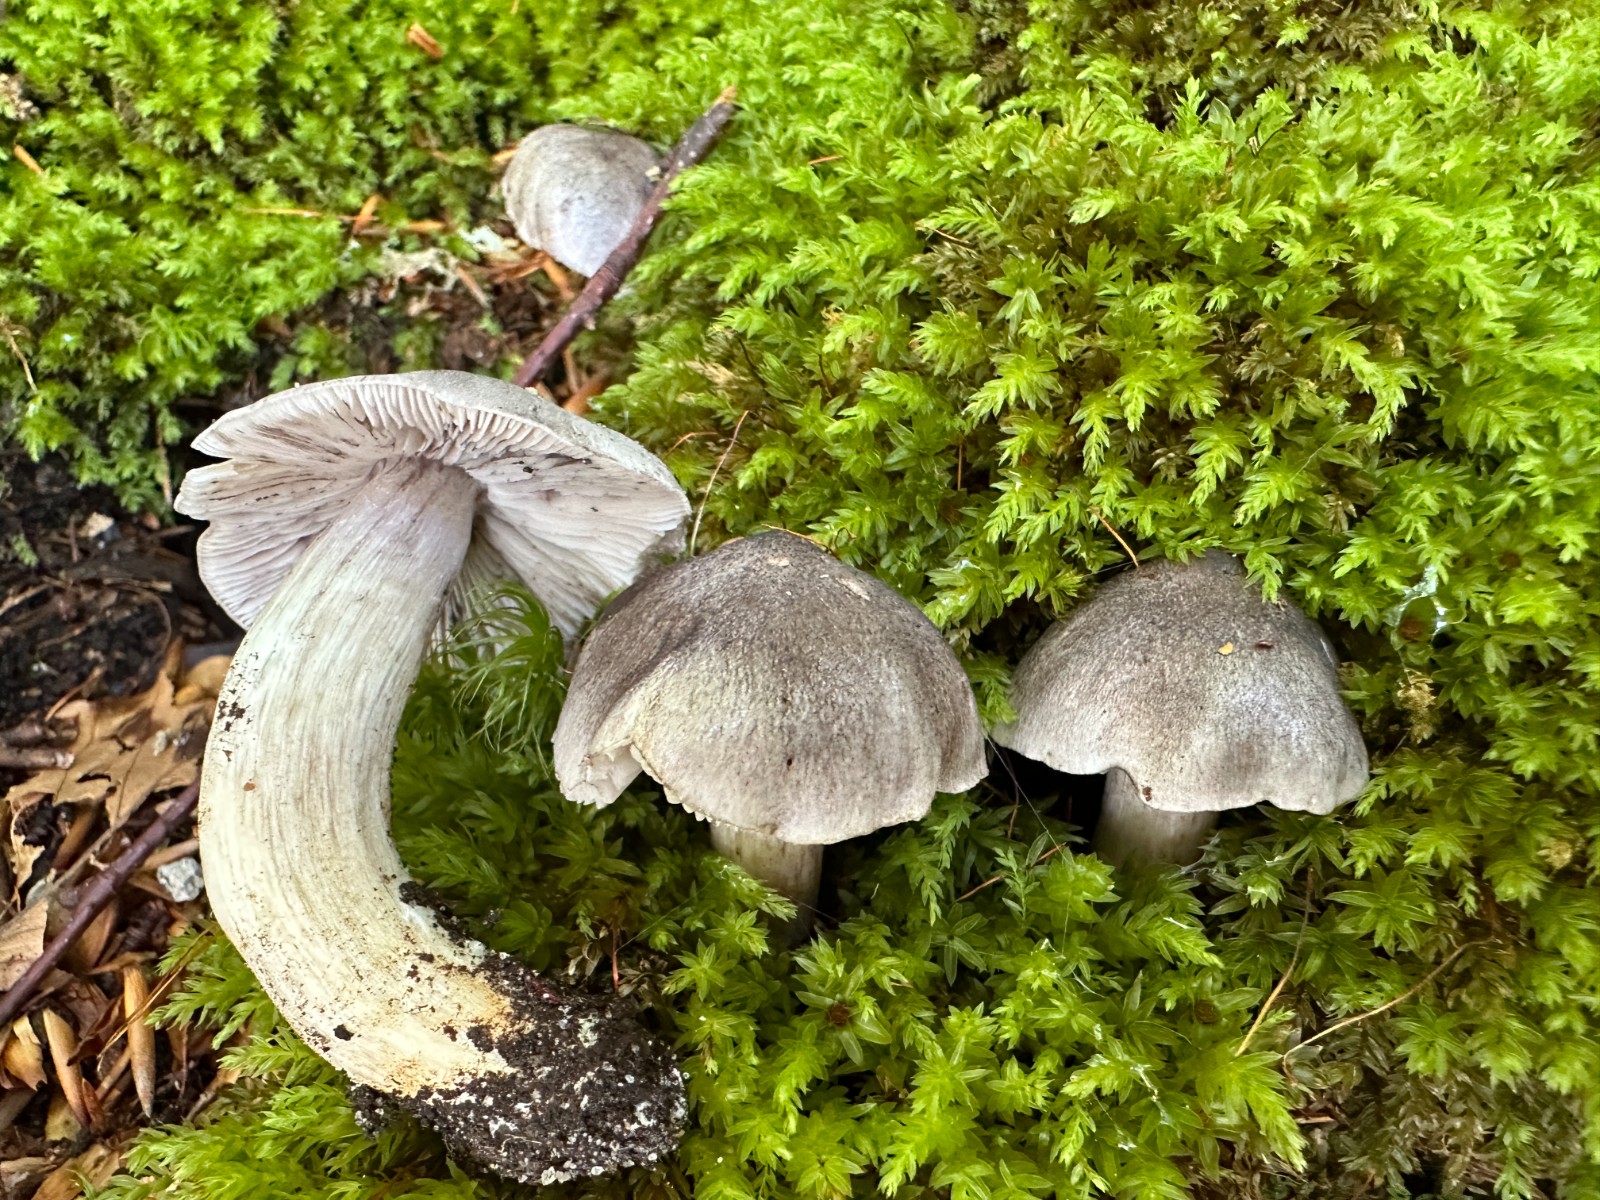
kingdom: Fungi
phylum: Basidiomycota
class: Agaricomycetes
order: Agaricales
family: Tricholomataceae
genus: Tricholoma
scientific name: Tricholoma sciodes
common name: stribet ridderhat
